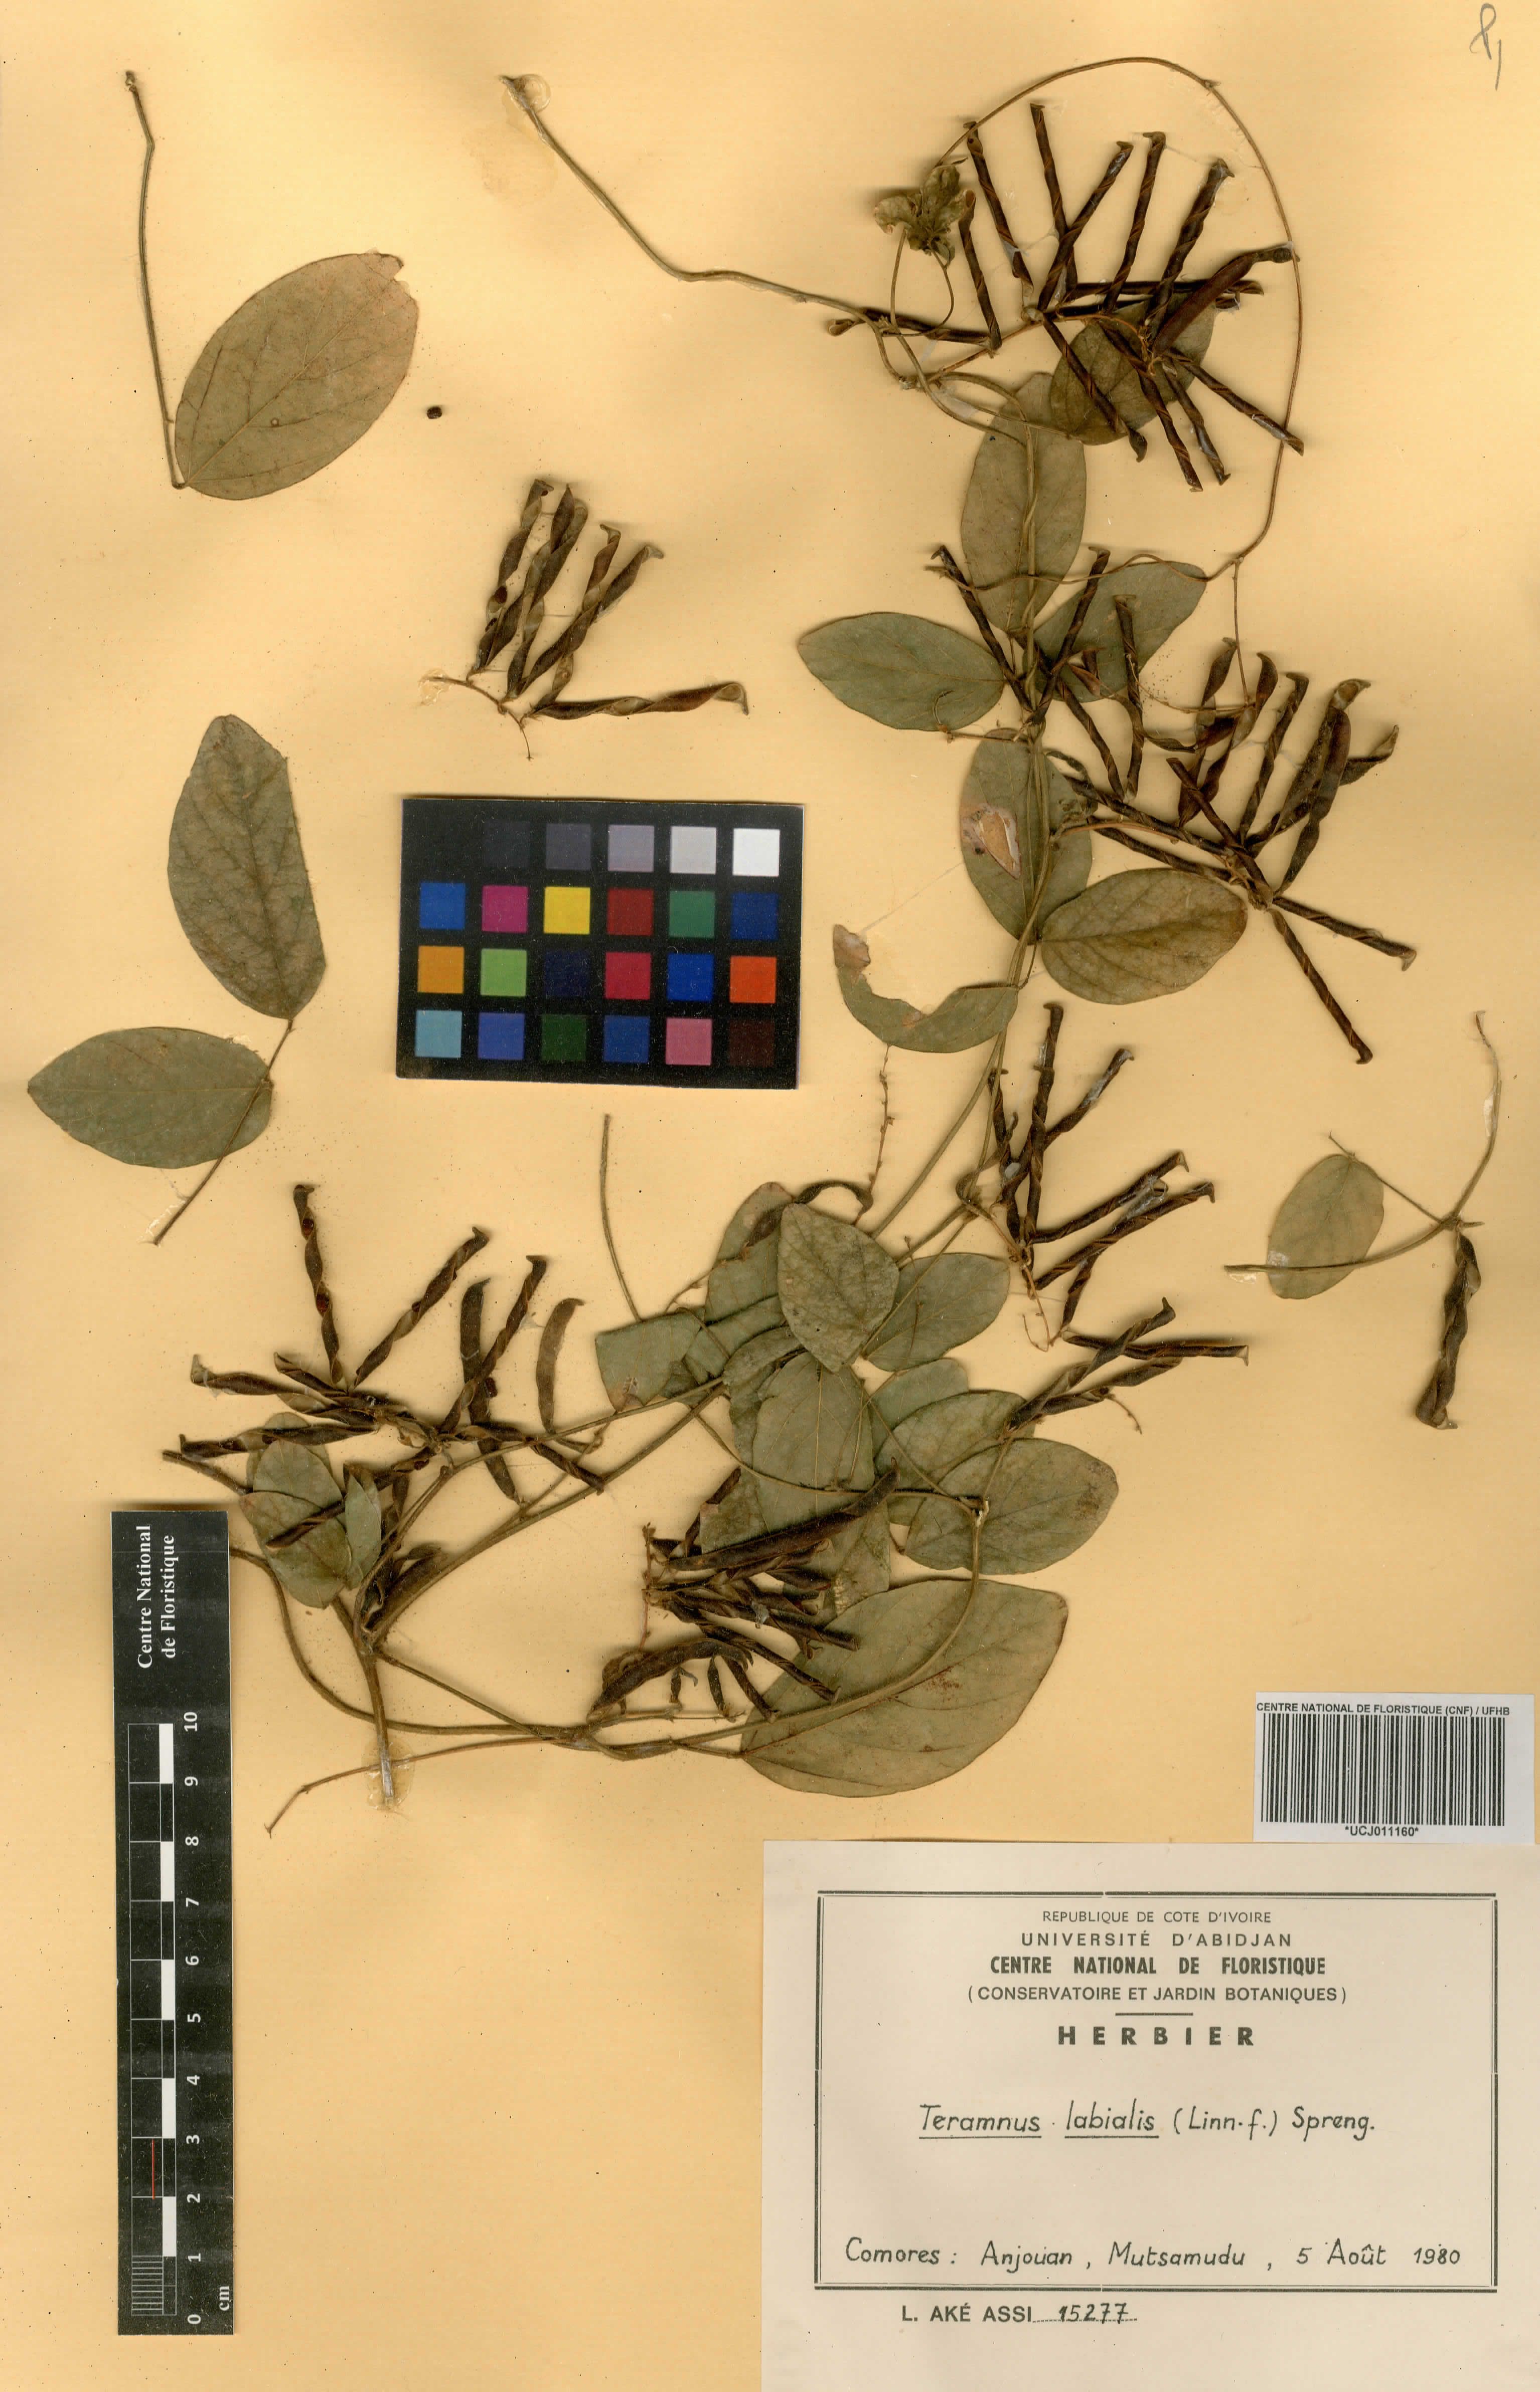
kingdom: Plantae
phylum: Tracheophyta
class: Magnoliopsida
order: Fabales
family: Fabaceae
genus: Teramnus
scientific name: Teramnus labialis
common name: Blue wiss
